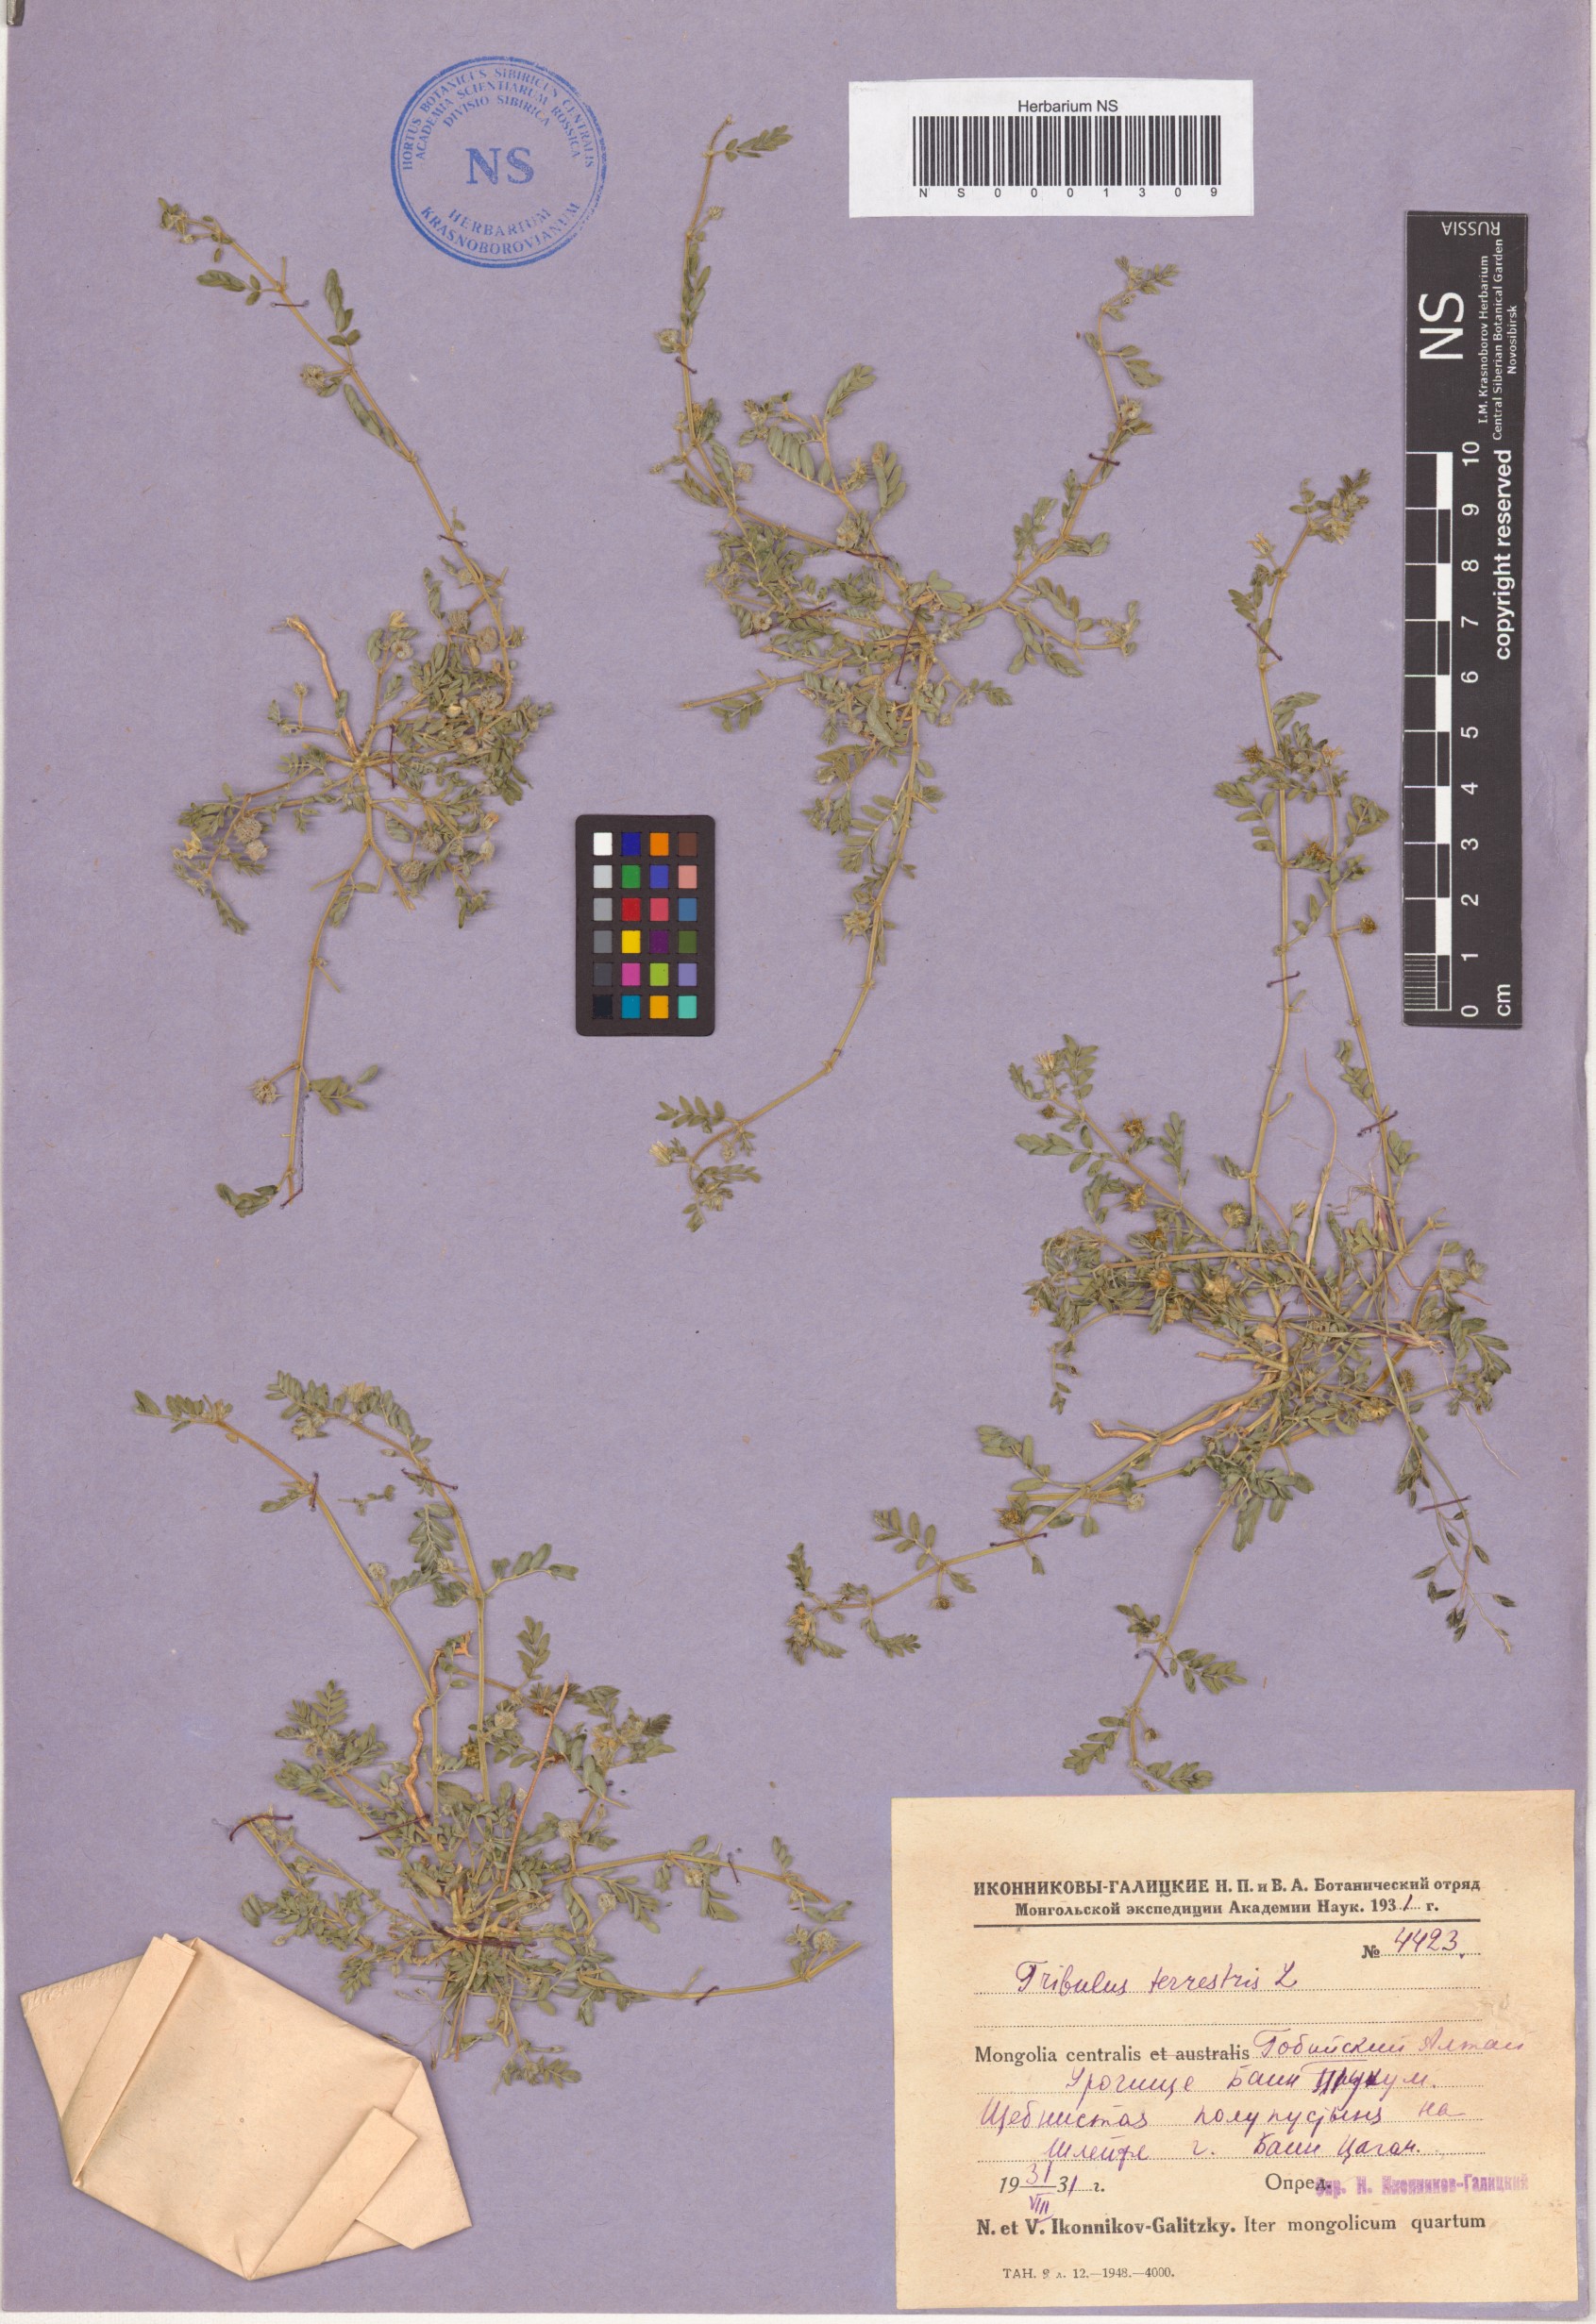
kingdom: Plantae
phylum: Tracheophyta
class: Magnoliopsida
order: Zygophyllales
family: Zygophyllaceae
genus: Tribulus
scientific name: Tribulus terrestris
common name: Puncturevine
